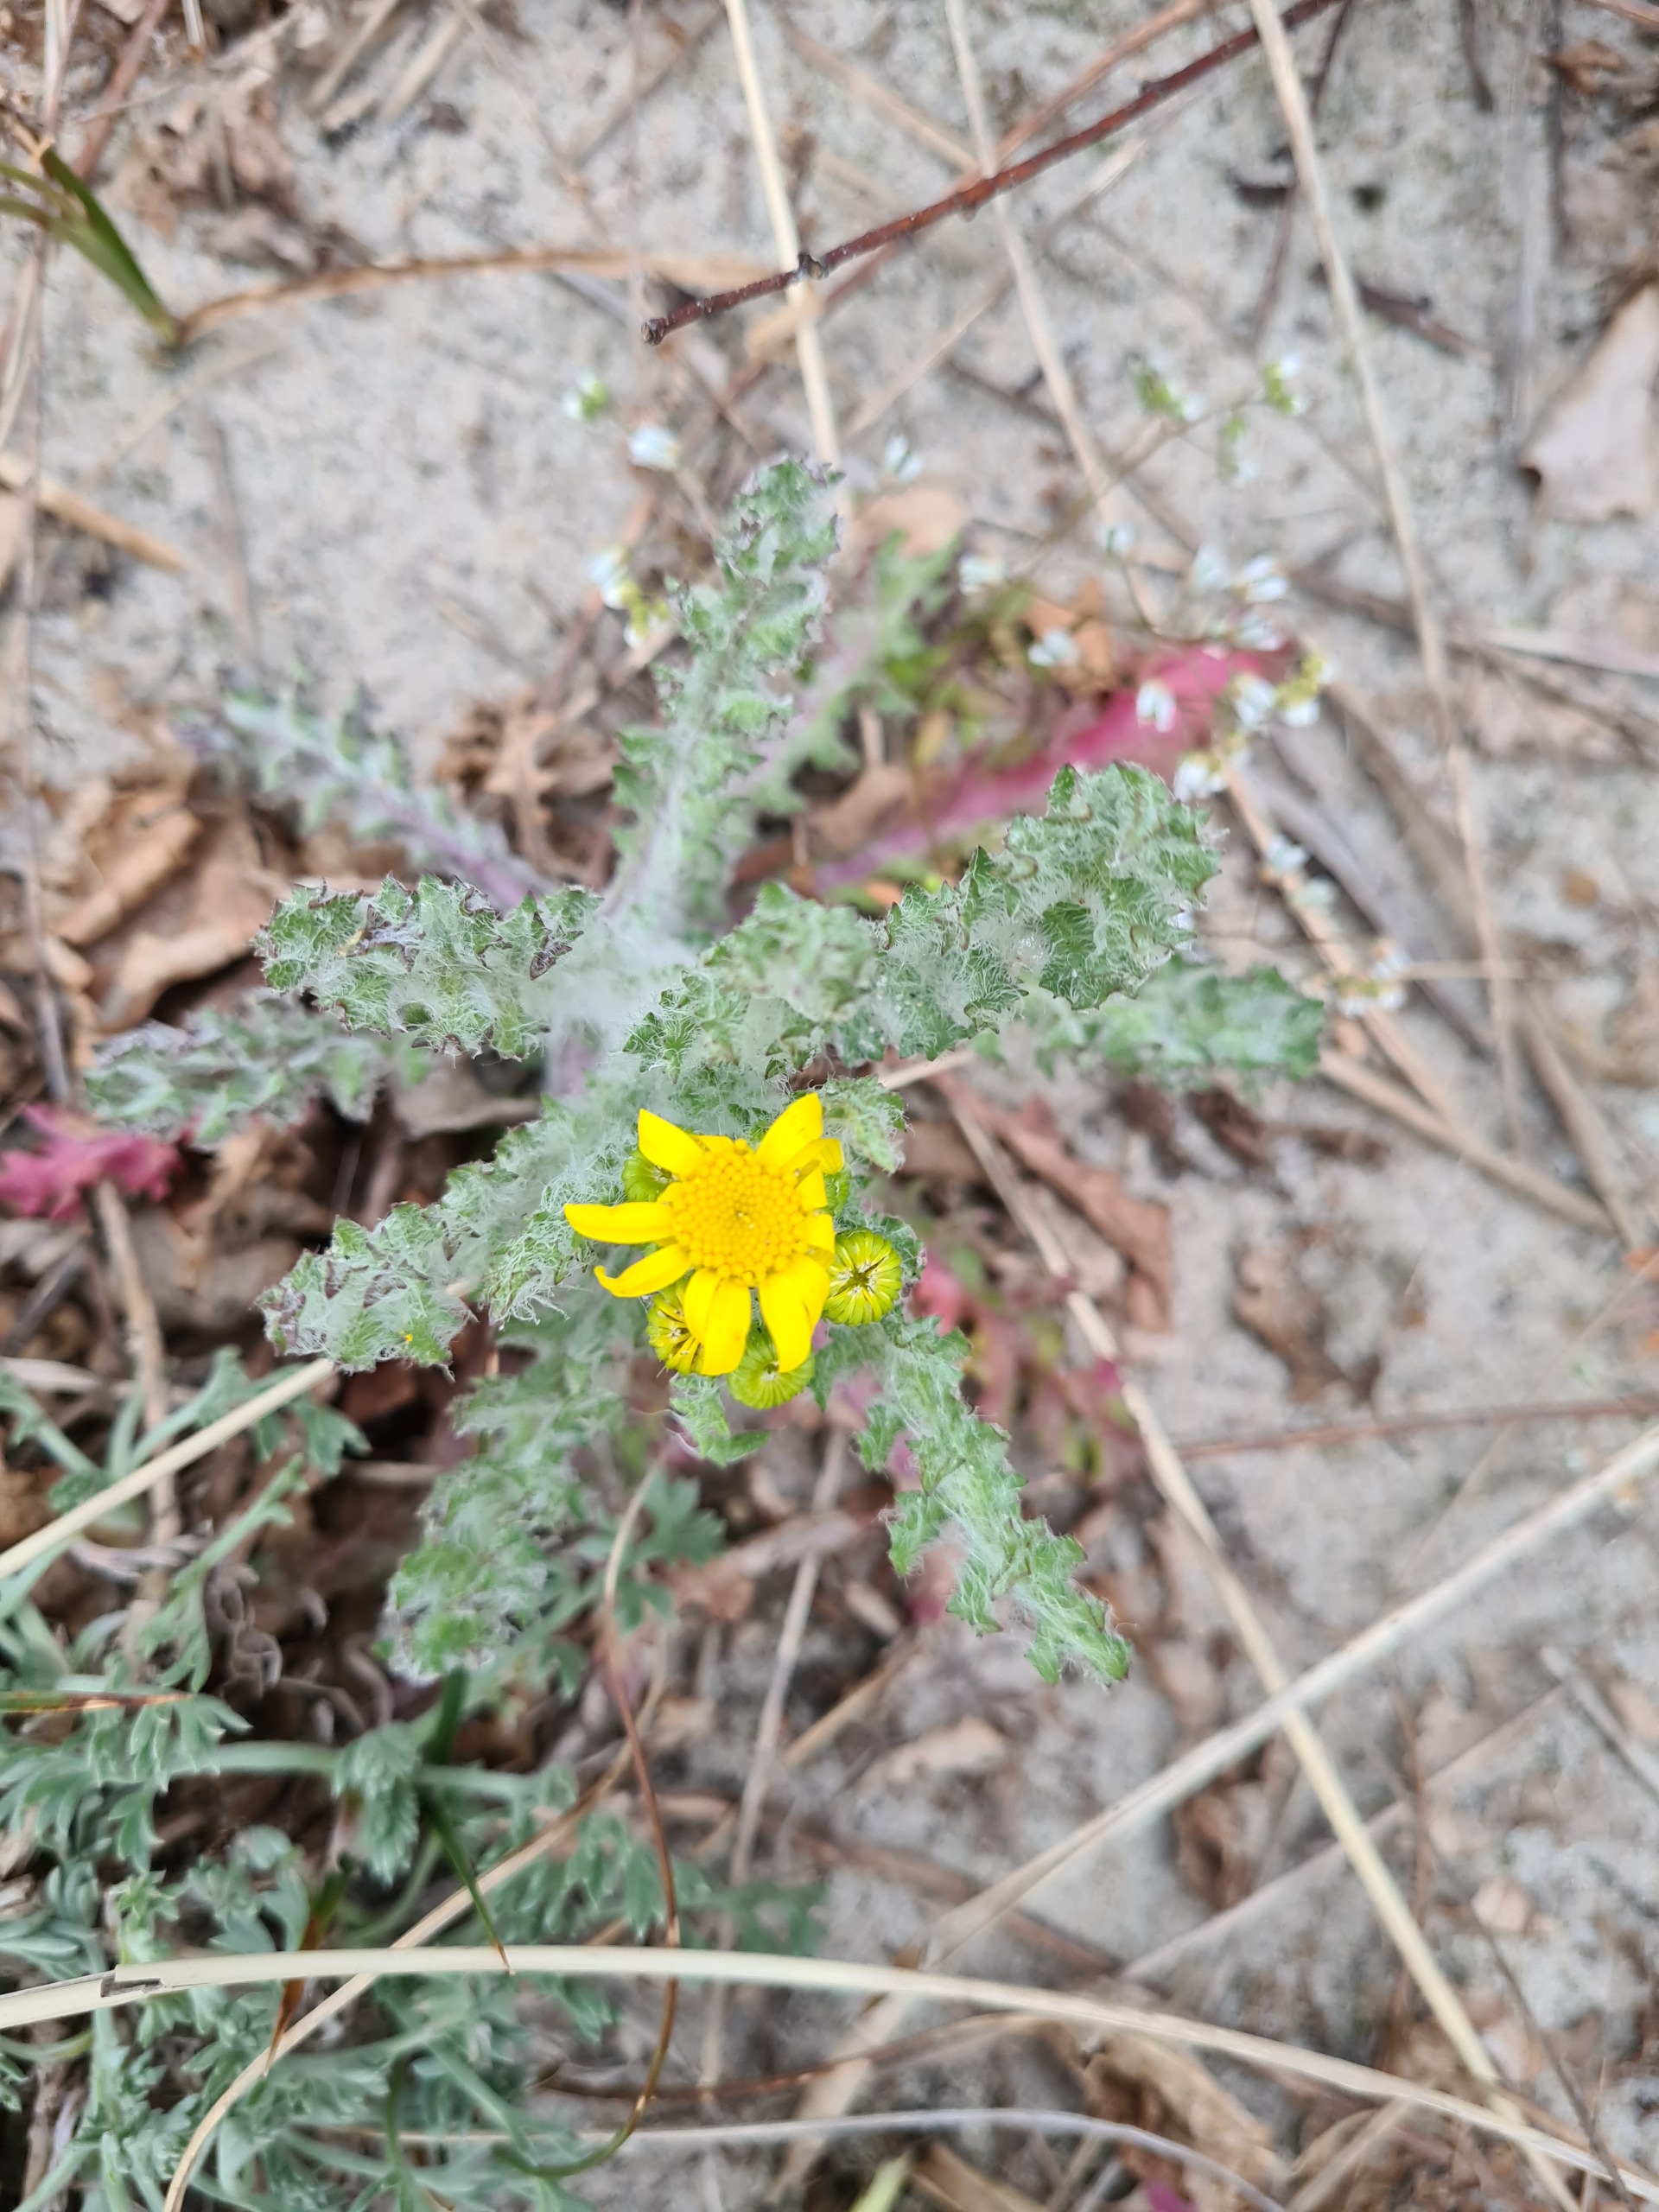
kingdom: Plantae
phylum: Tracheophyta
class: Magnoliopsida
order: Asterales
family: Asteraceae
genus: Senecio
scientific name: Senecio leucanthemifolius
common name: Vår-brandbæger
